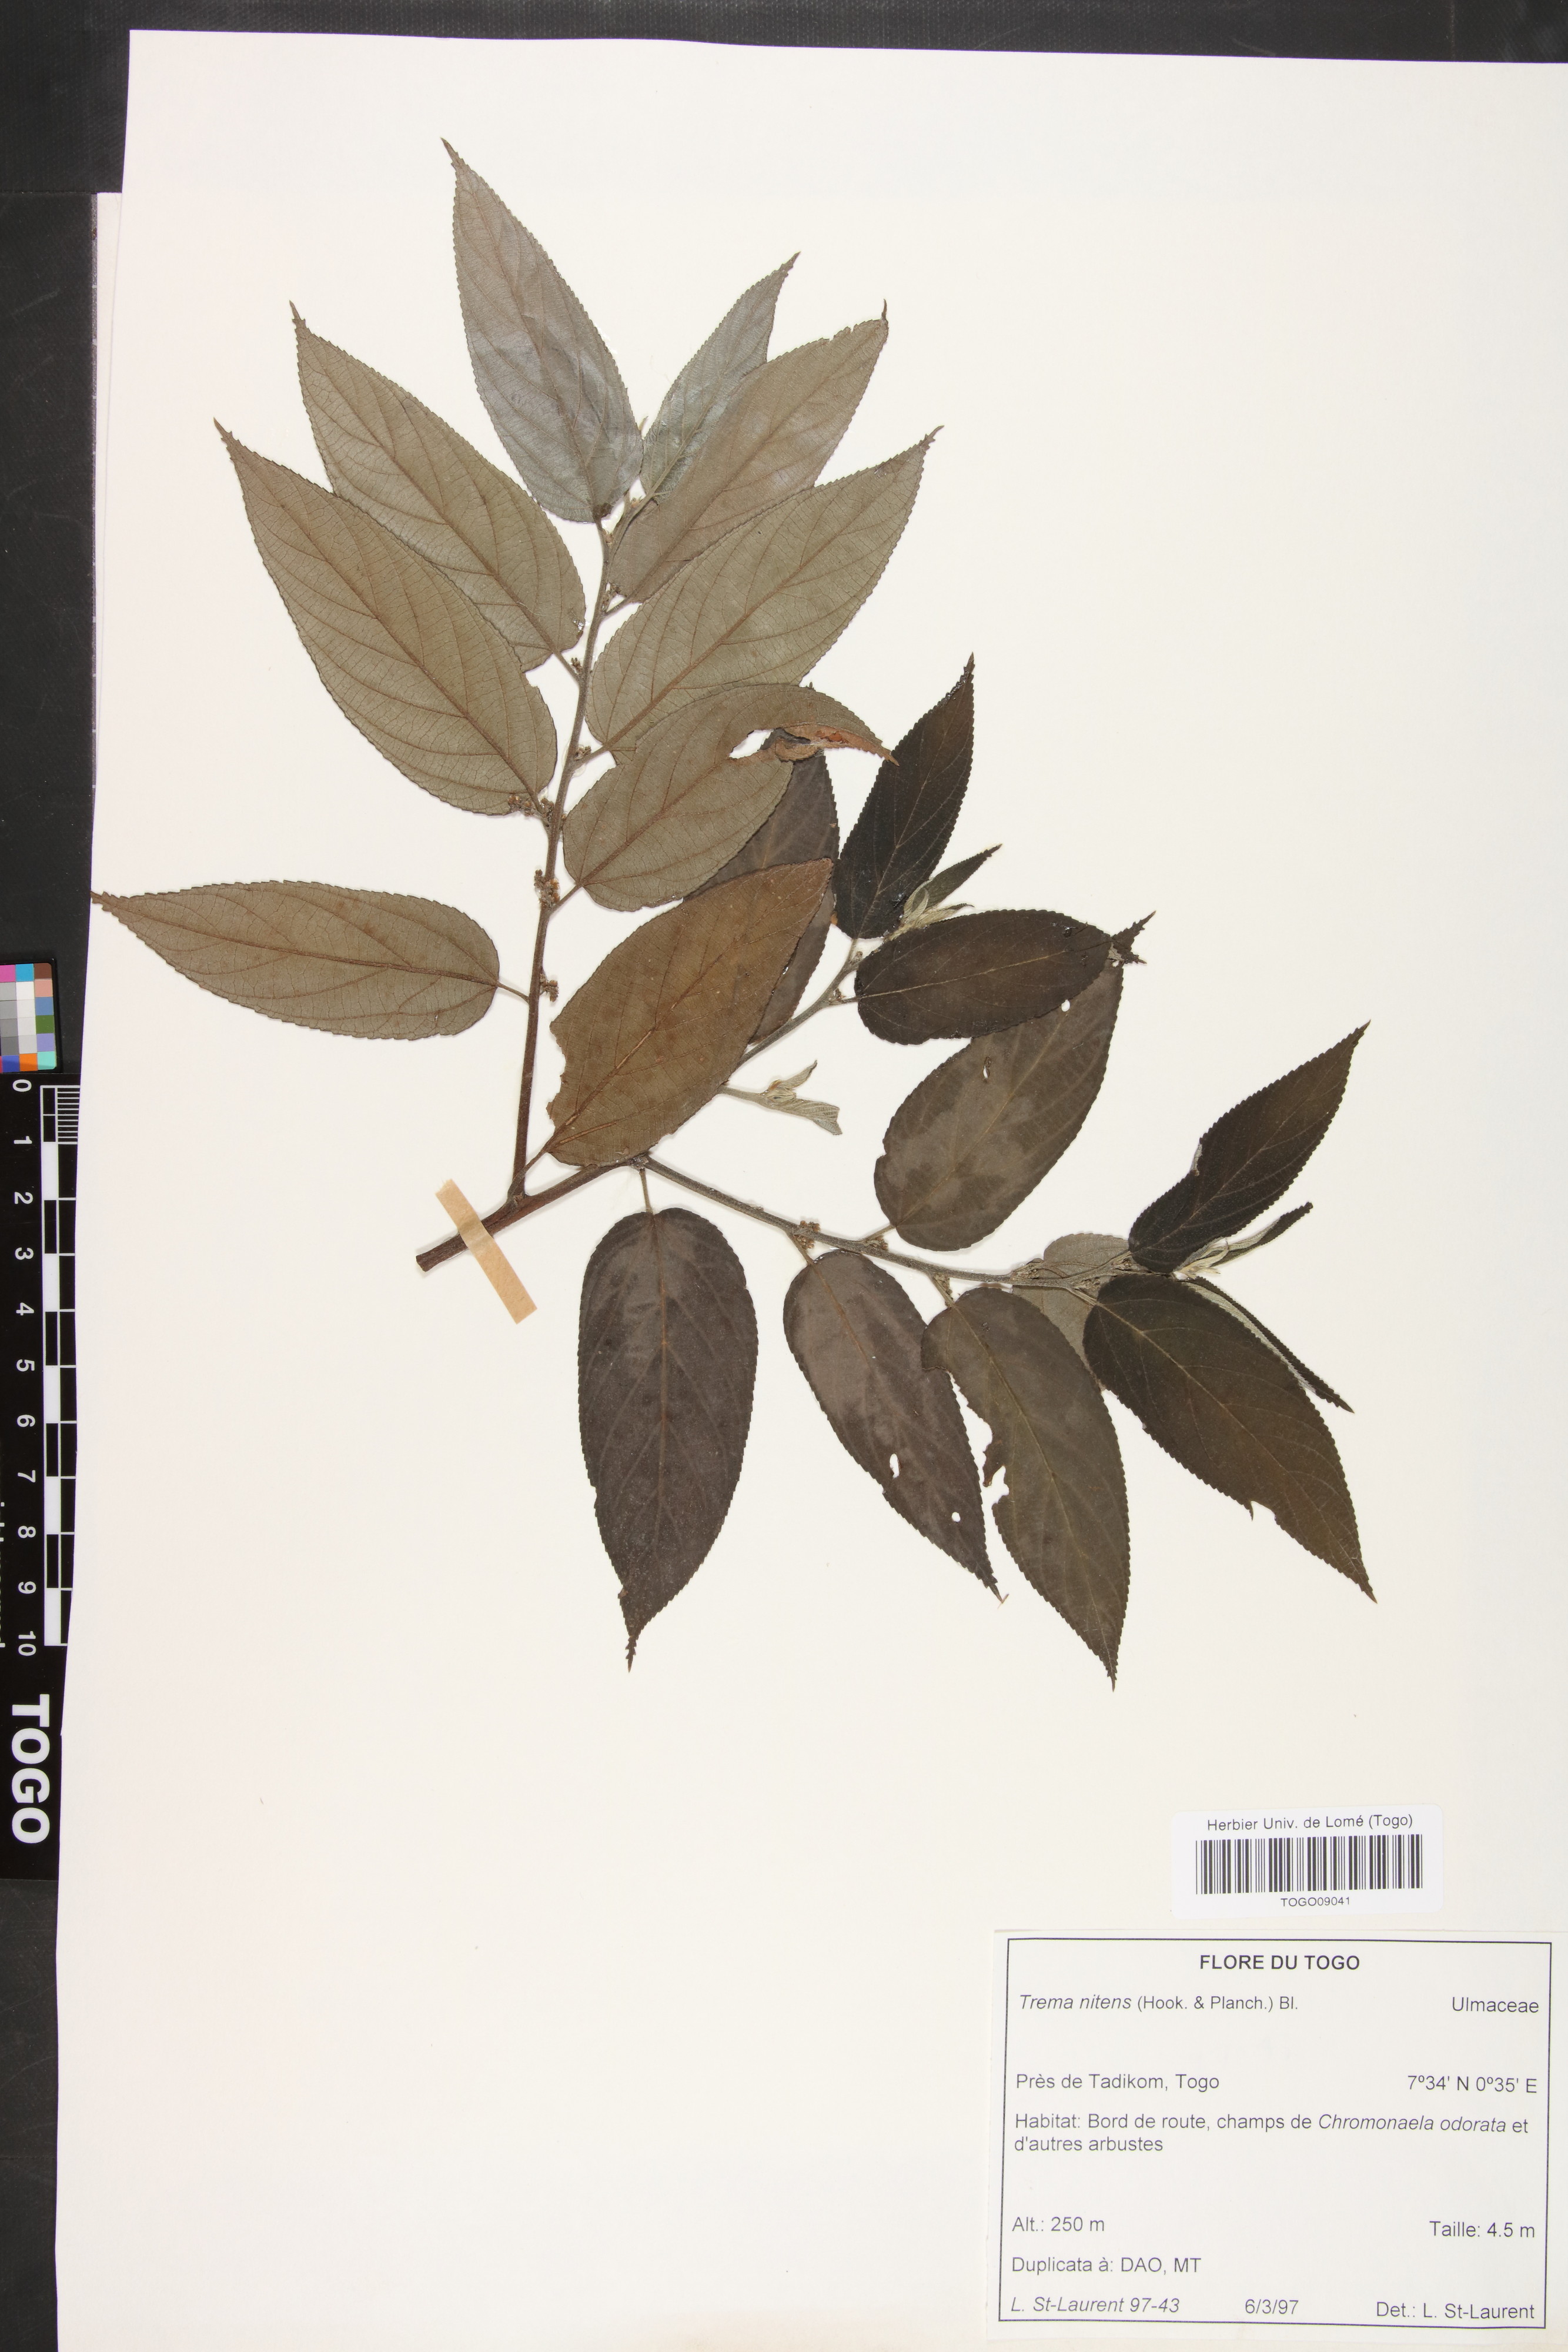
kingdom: Plantae
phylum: Tracheophyta
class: Magnoliopsida
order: Rosales
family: Cannabaceae
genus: Trema
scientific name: Trema orientale
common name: Indian charcoal tree
